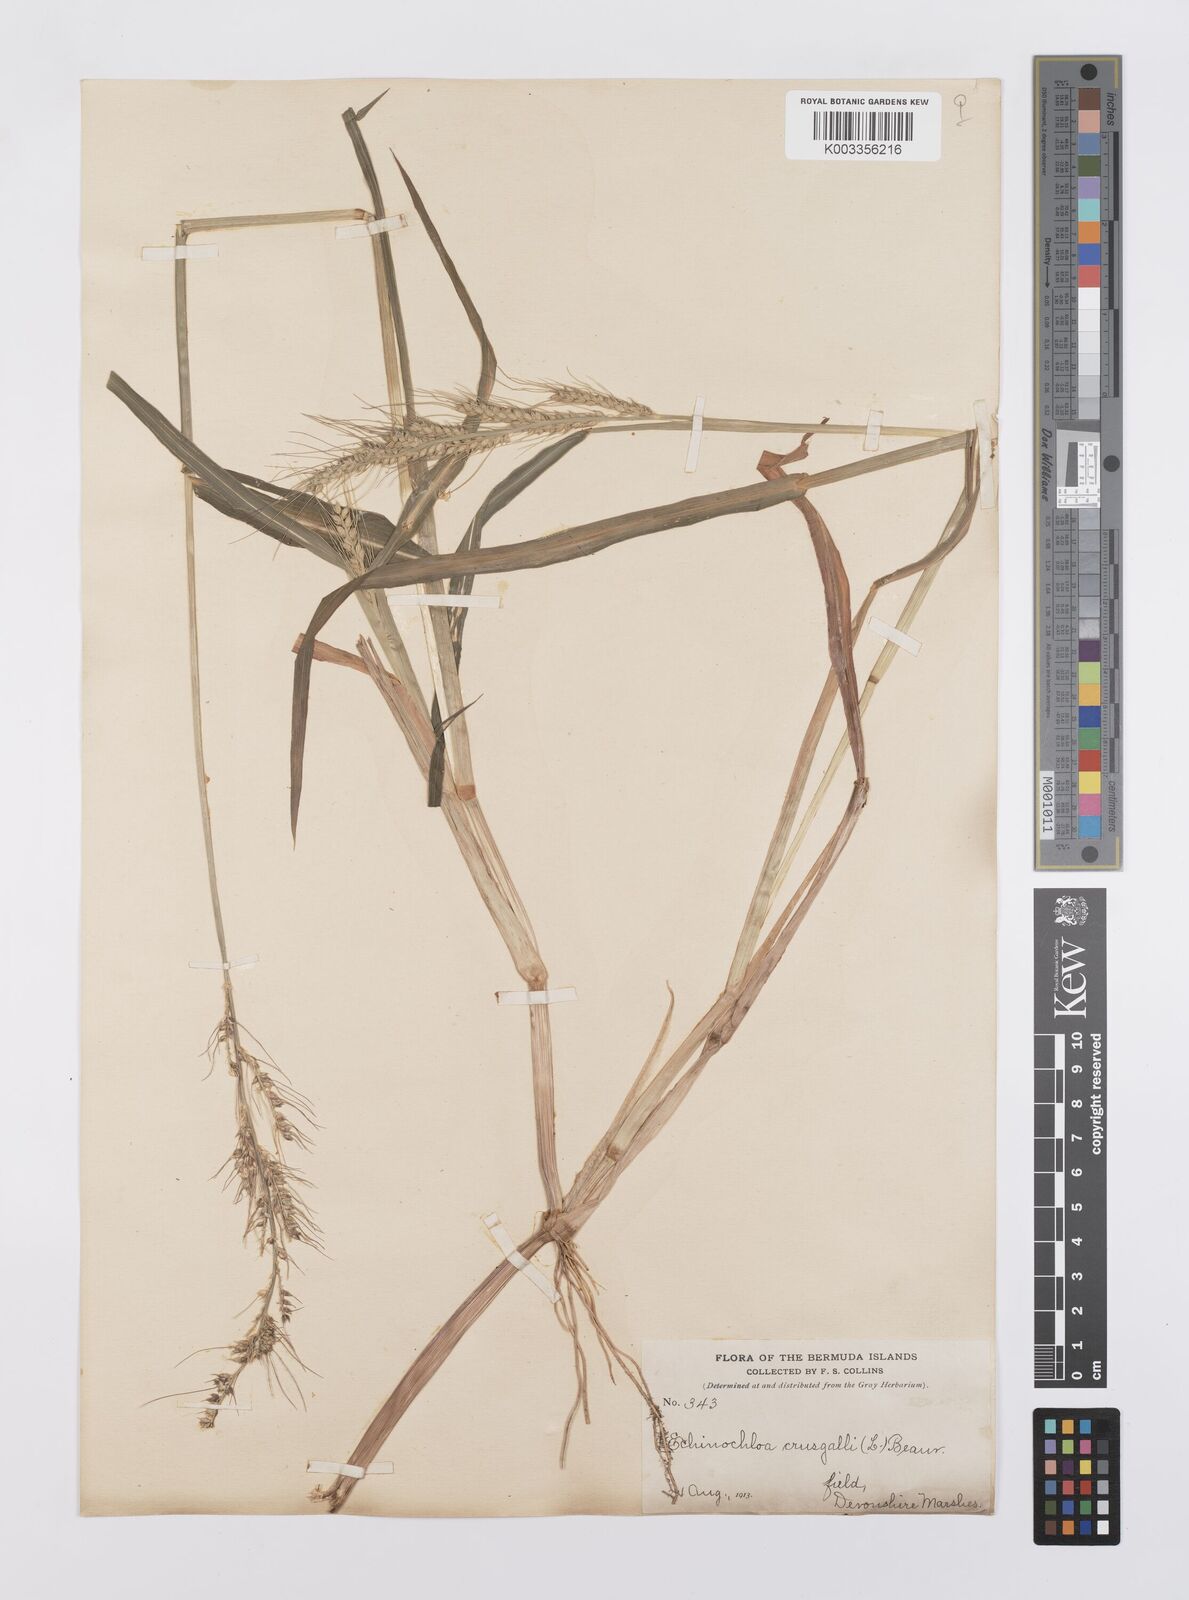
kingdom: Plantae
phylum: Tracheophyta
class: Liliopsida
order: Poales
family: Poaceae
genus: Echinochloa
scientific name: Echinochloa crus-galli
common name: Cockspur
